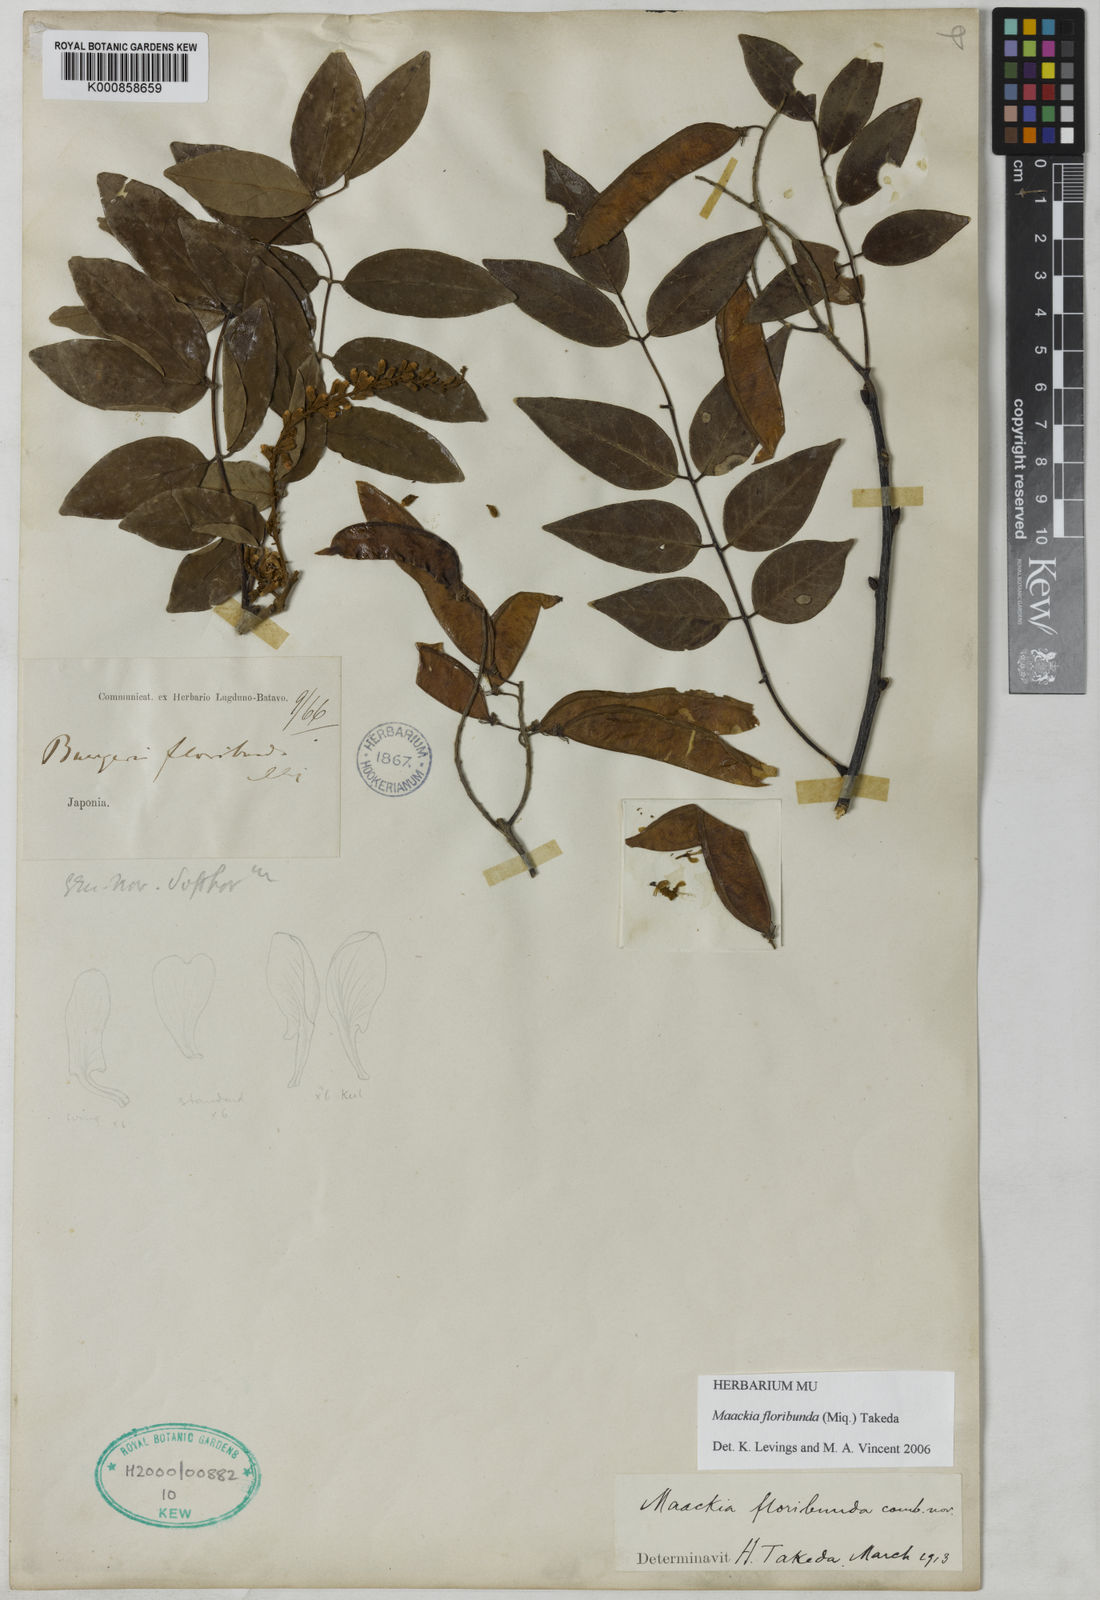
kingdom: Plantae
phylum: Tracheophyta
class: Magnoliopsida
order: Fabales
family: Fabaceae
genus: Maackia
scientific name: Maackia floribunda
